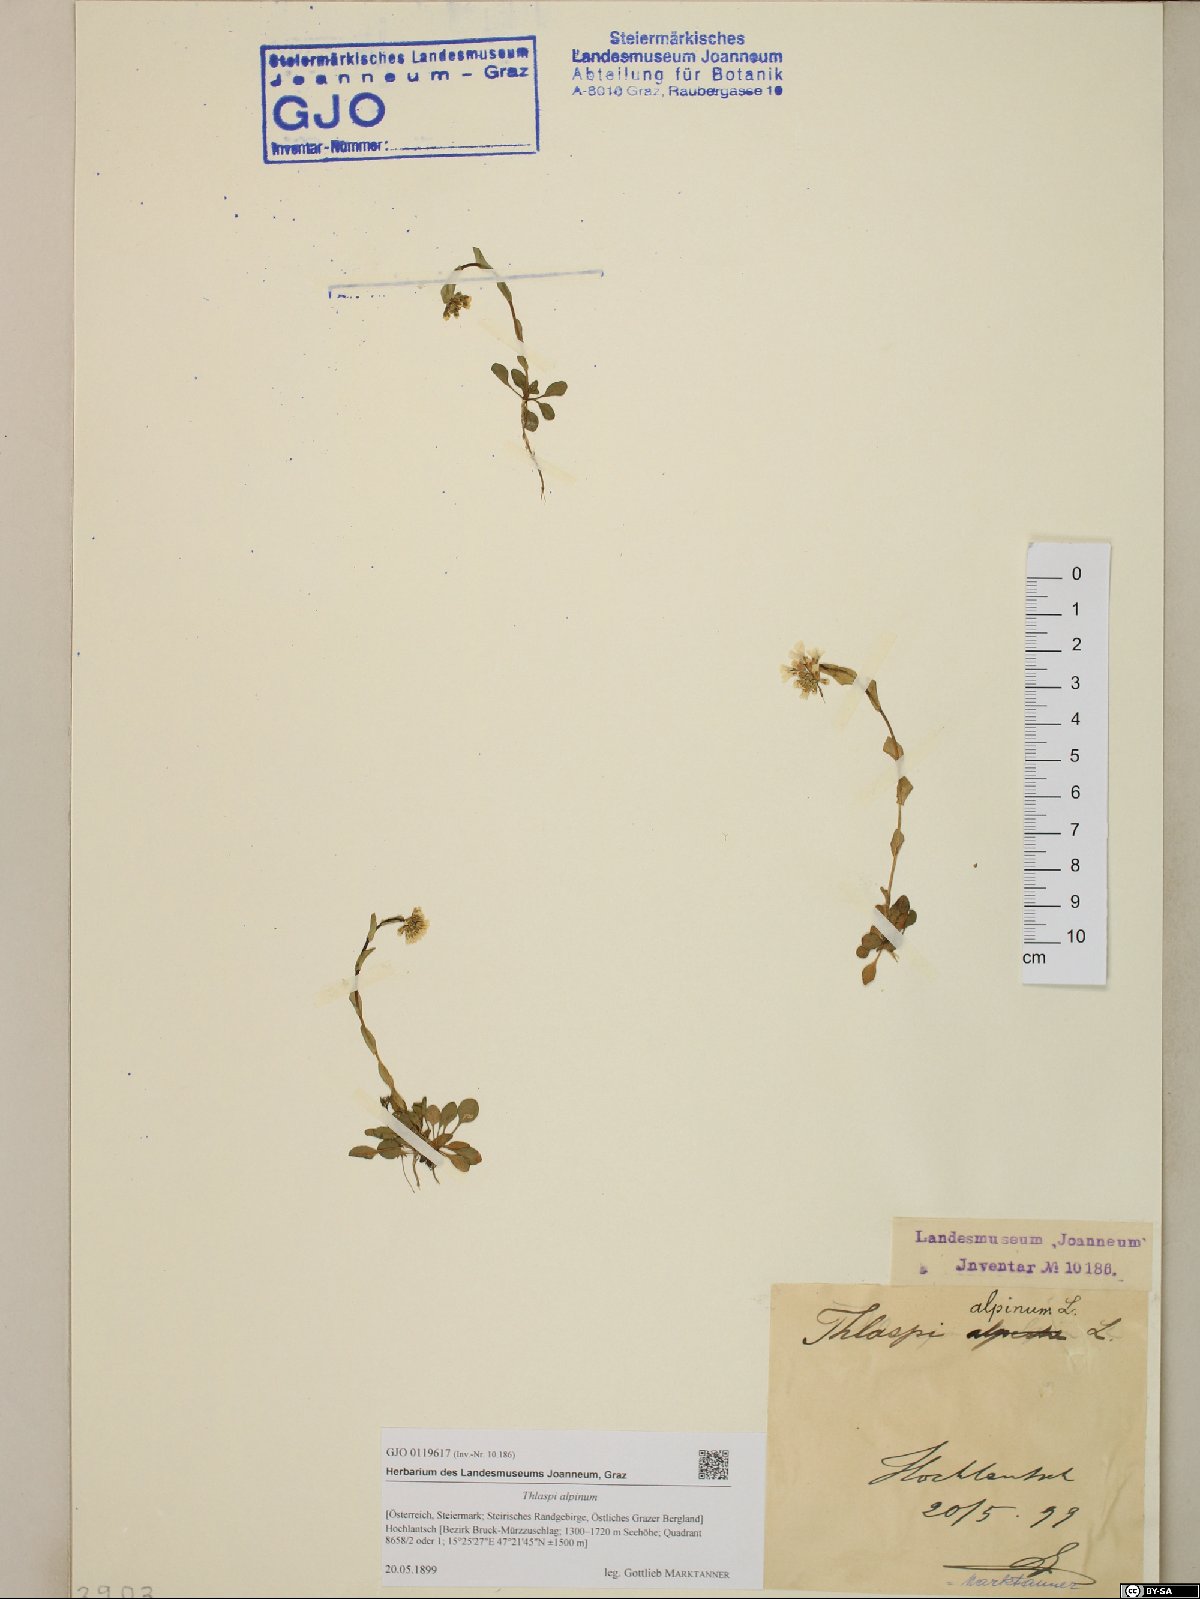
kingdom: Plantae
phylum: Tracheophyta
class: Magnoliopsida
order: Brassicales
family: Brassicaceae
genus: Noccaea
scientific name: Noccaea alpestris
